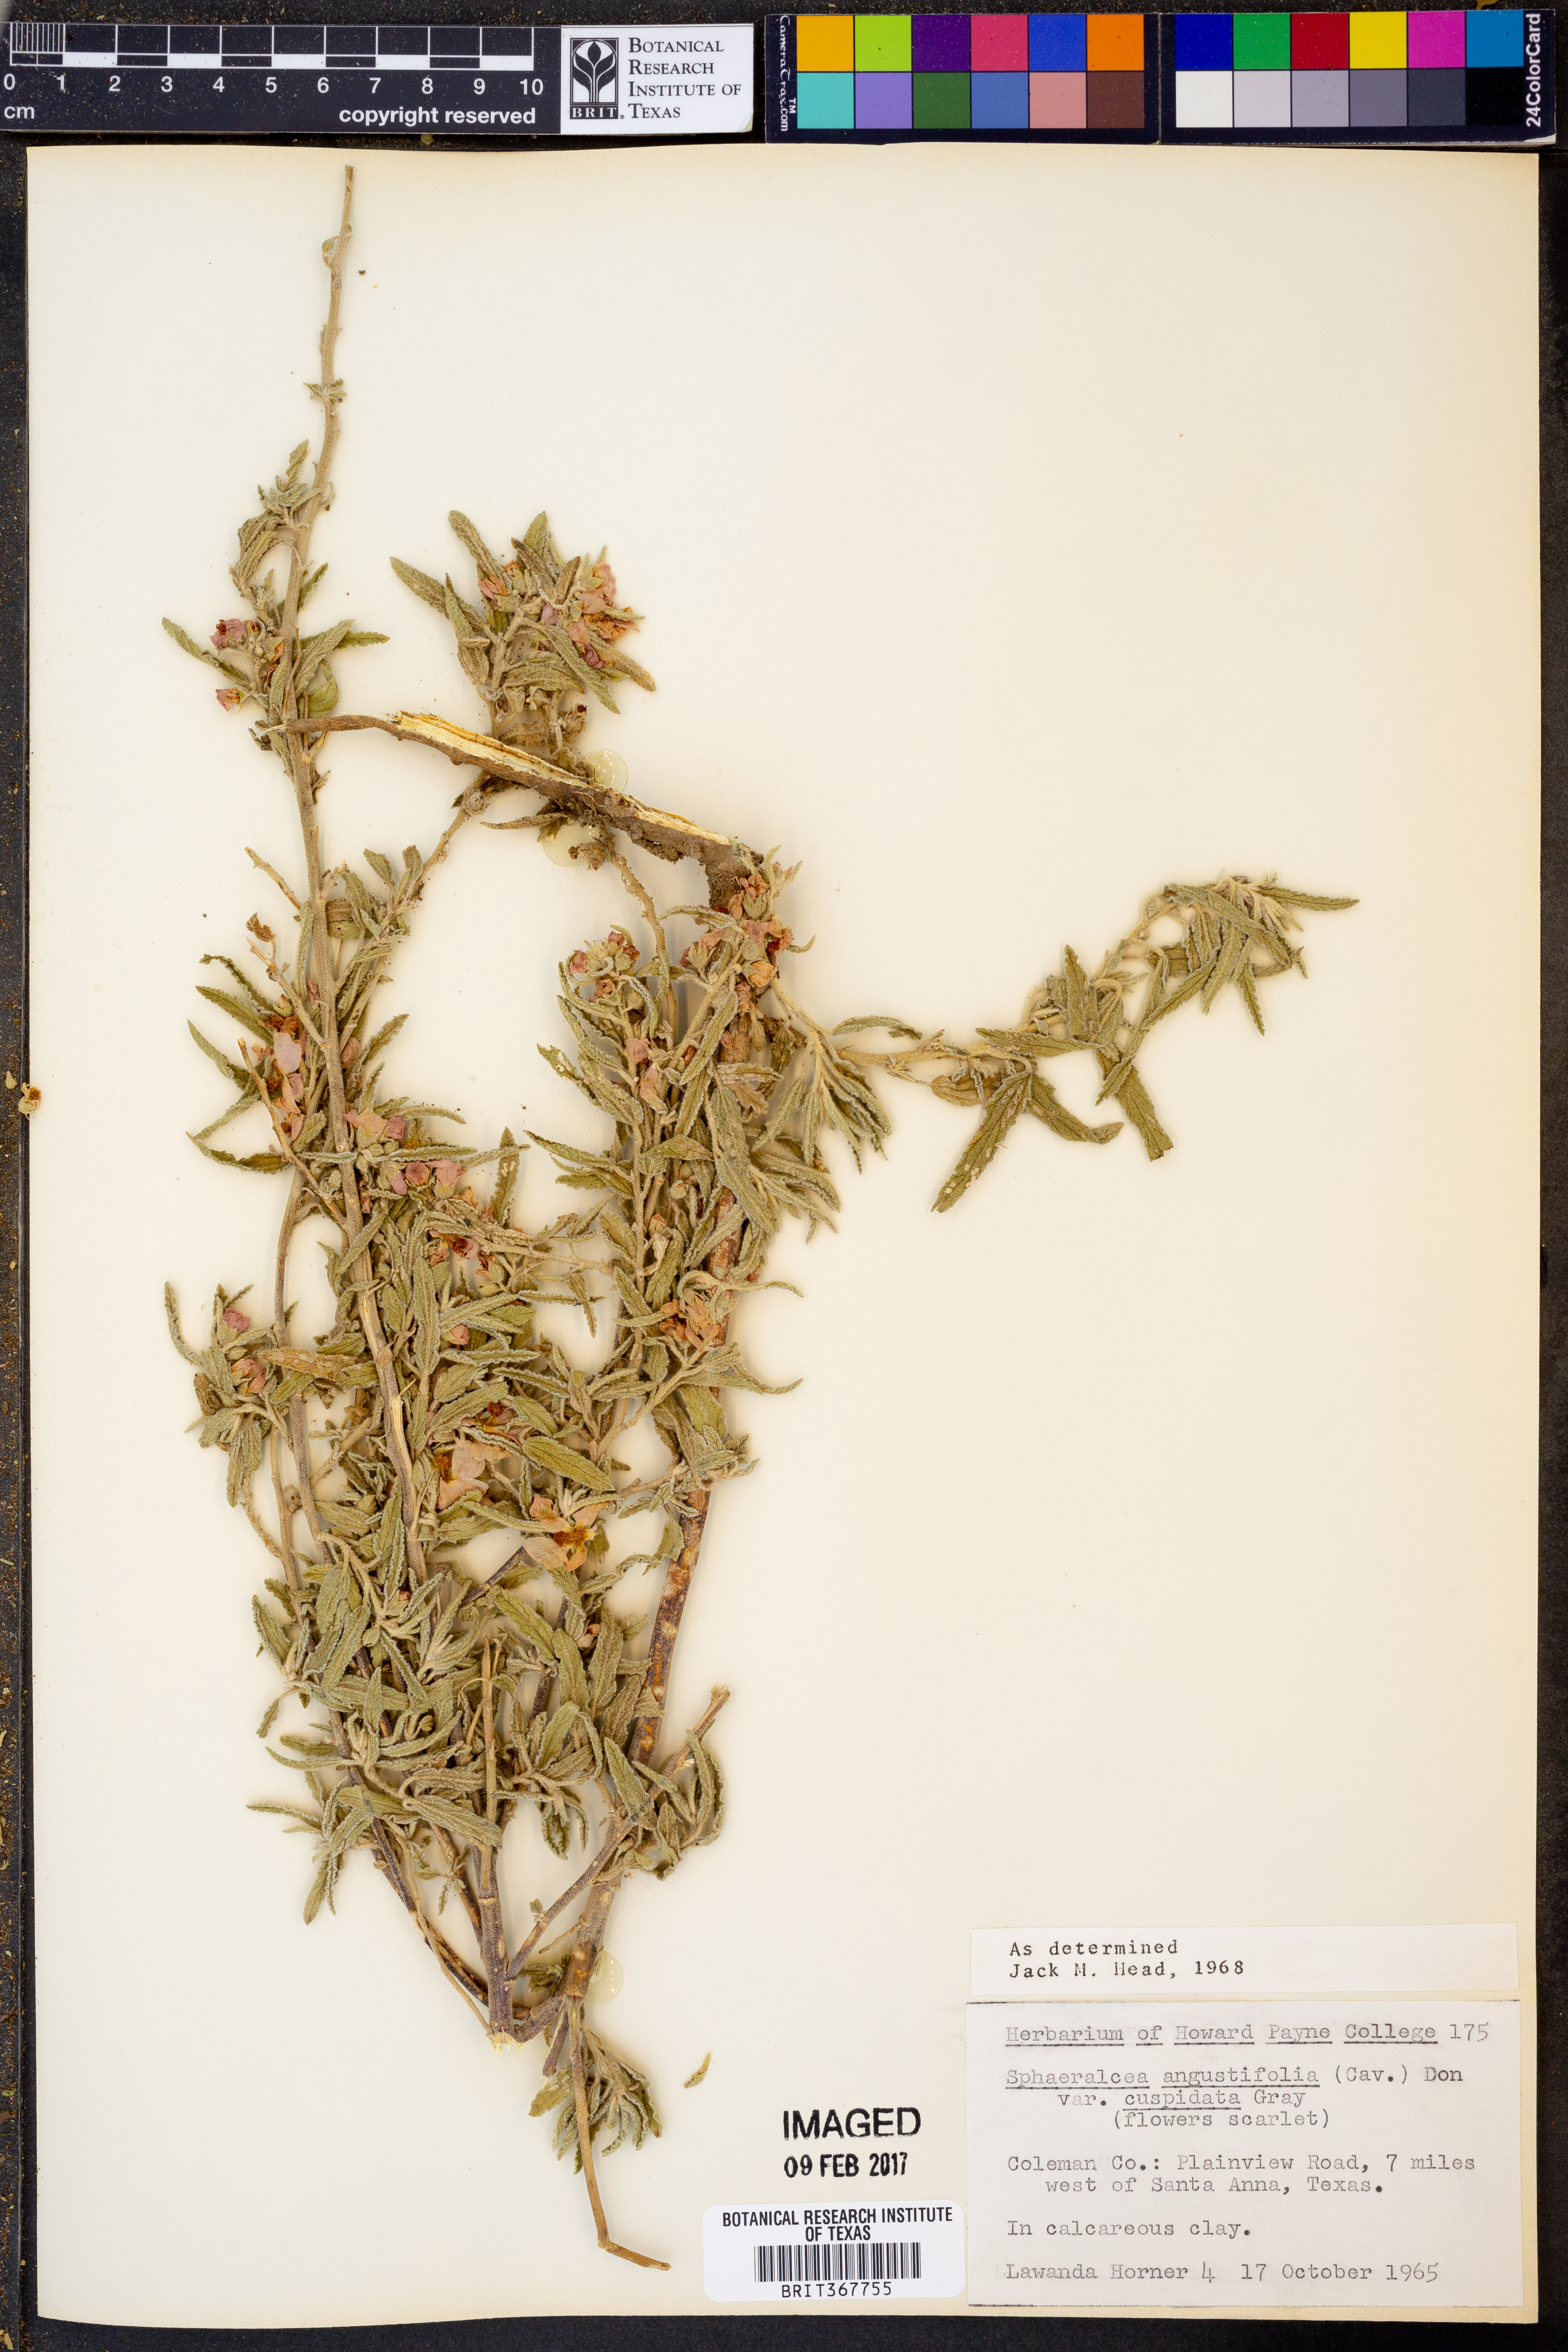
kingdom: Plantae
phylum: Tracheophyta
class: Magnoliopsida
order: Malvales
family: Malvaceae
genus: Sphaeralcea
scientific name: Sphaeralcea angustifolia
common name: Copper globe-mallow
